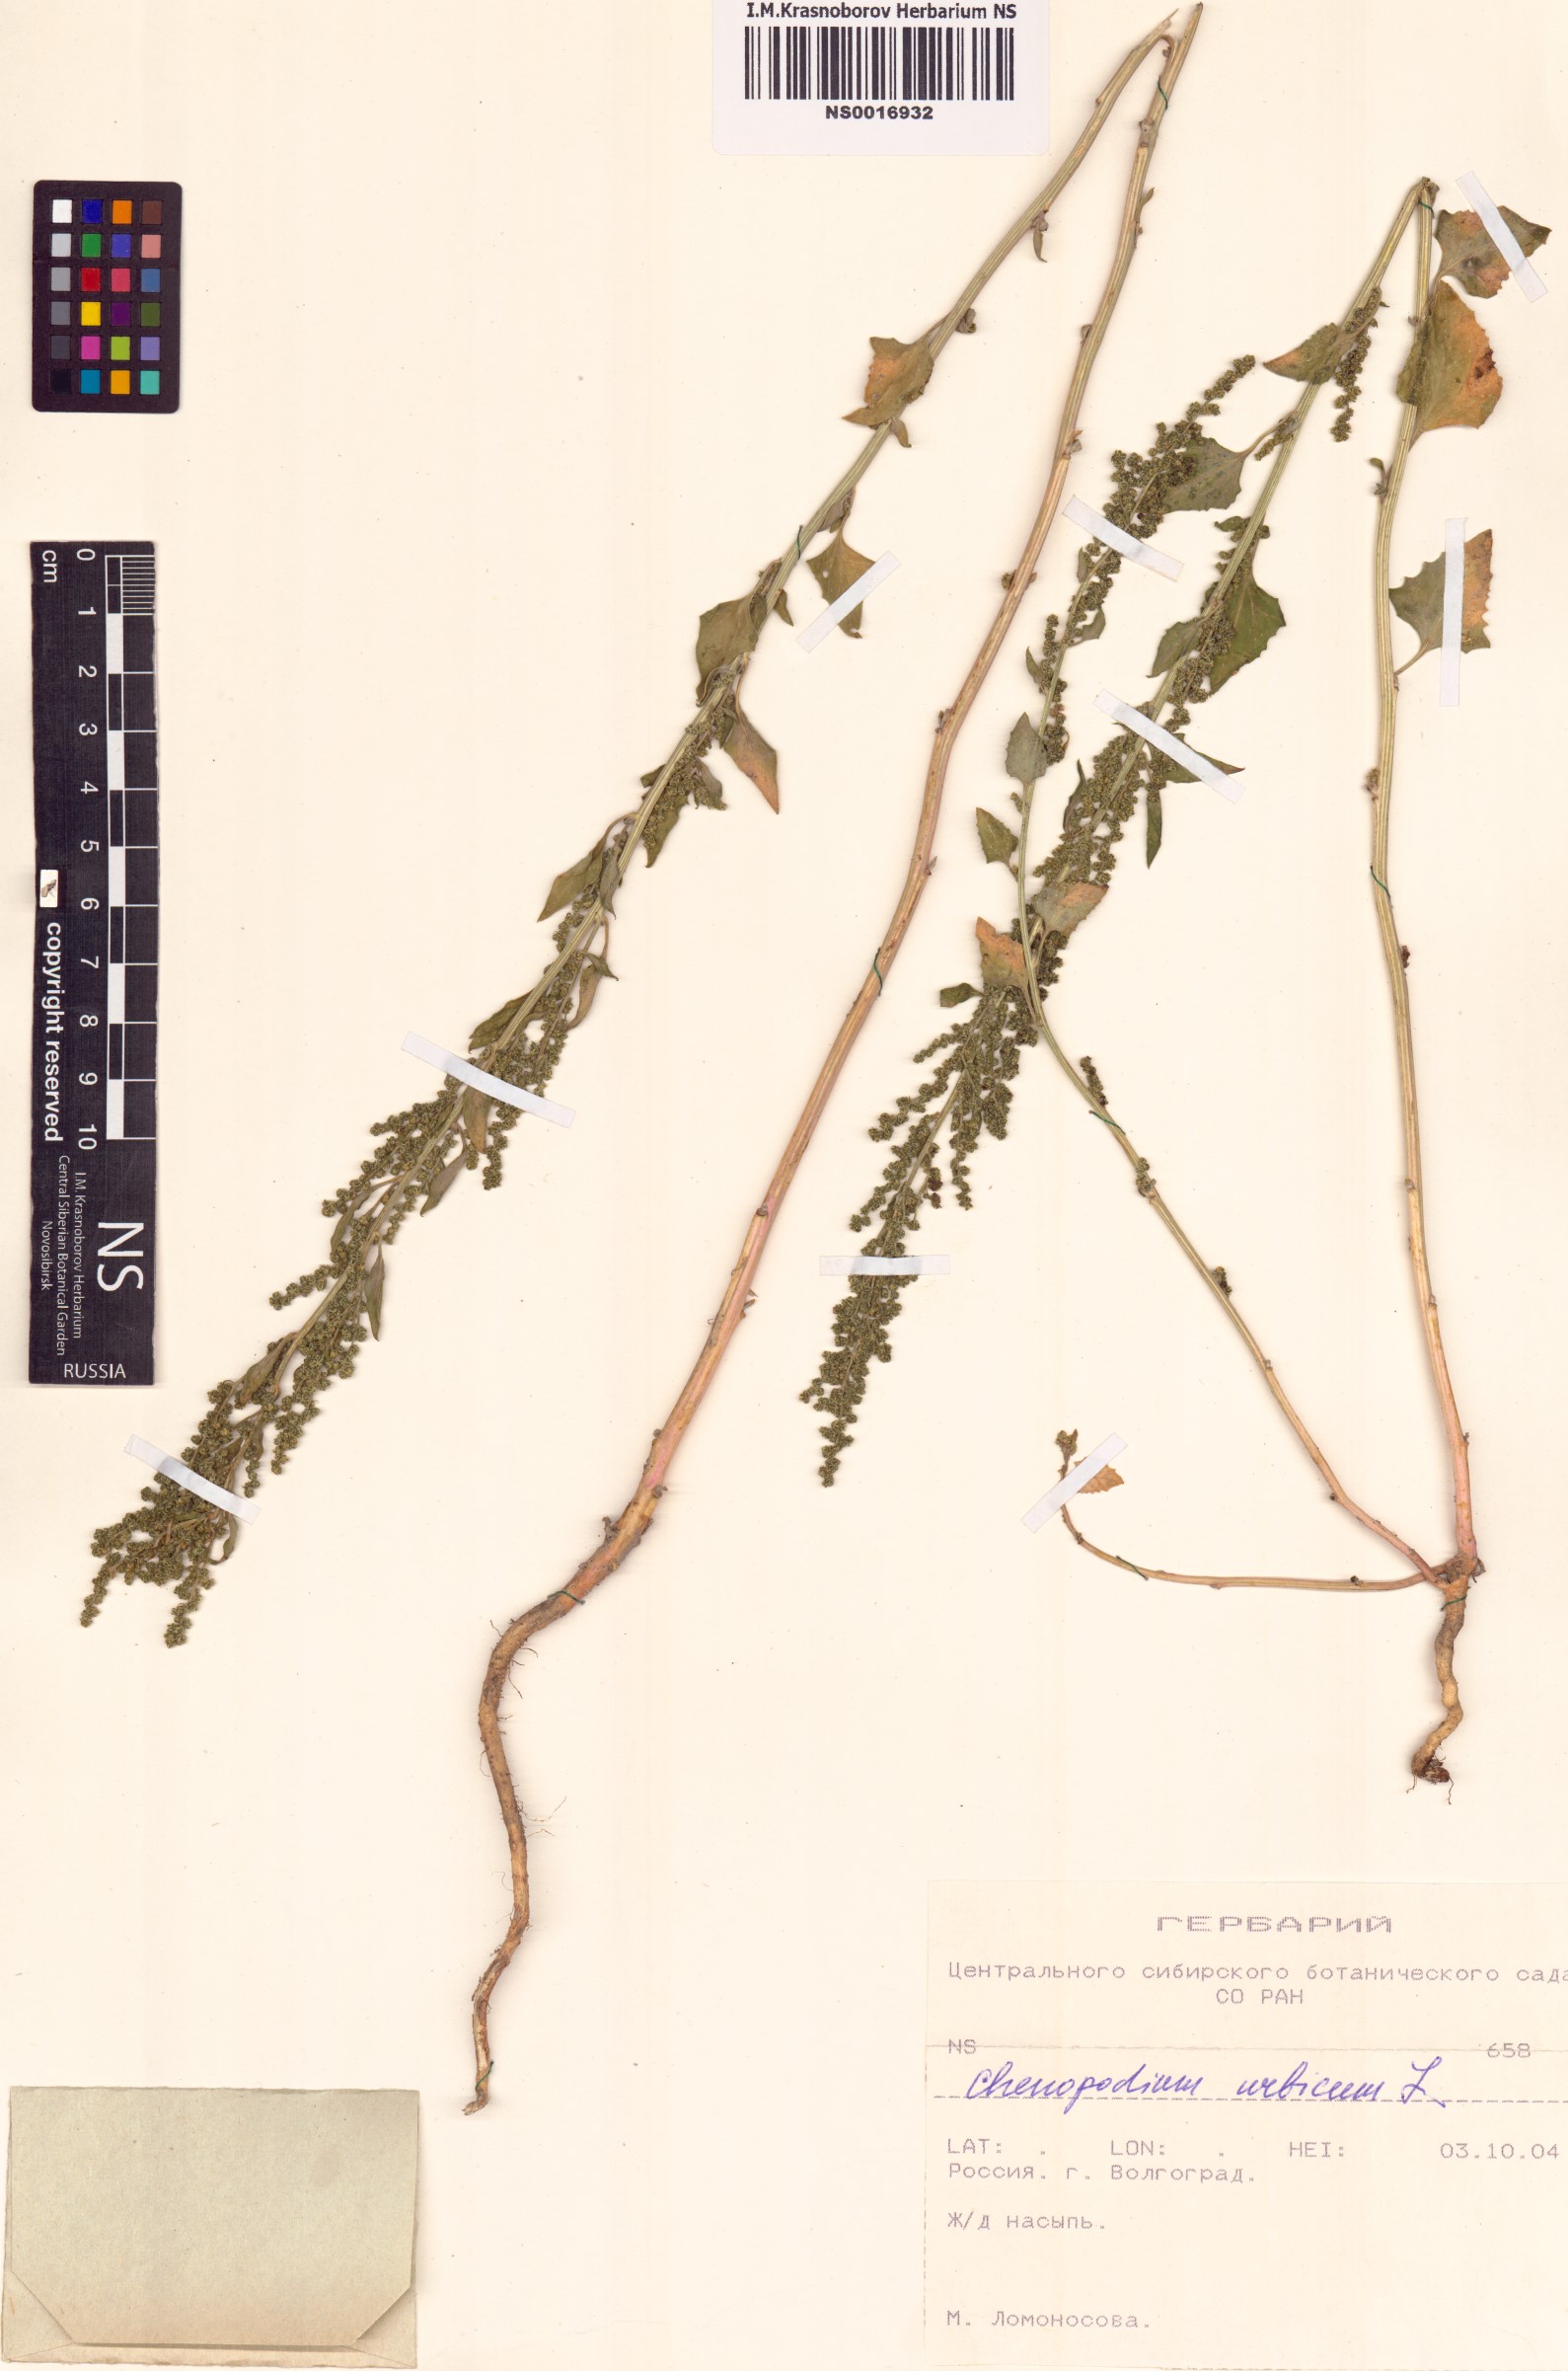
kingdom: Plantae
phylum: Tracheophyta
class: Magnoliopsida
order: Caryophyllales
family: Amaranthaceae
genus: Oxybasis
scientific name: Oxybasis urbica
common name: City goosefoot
